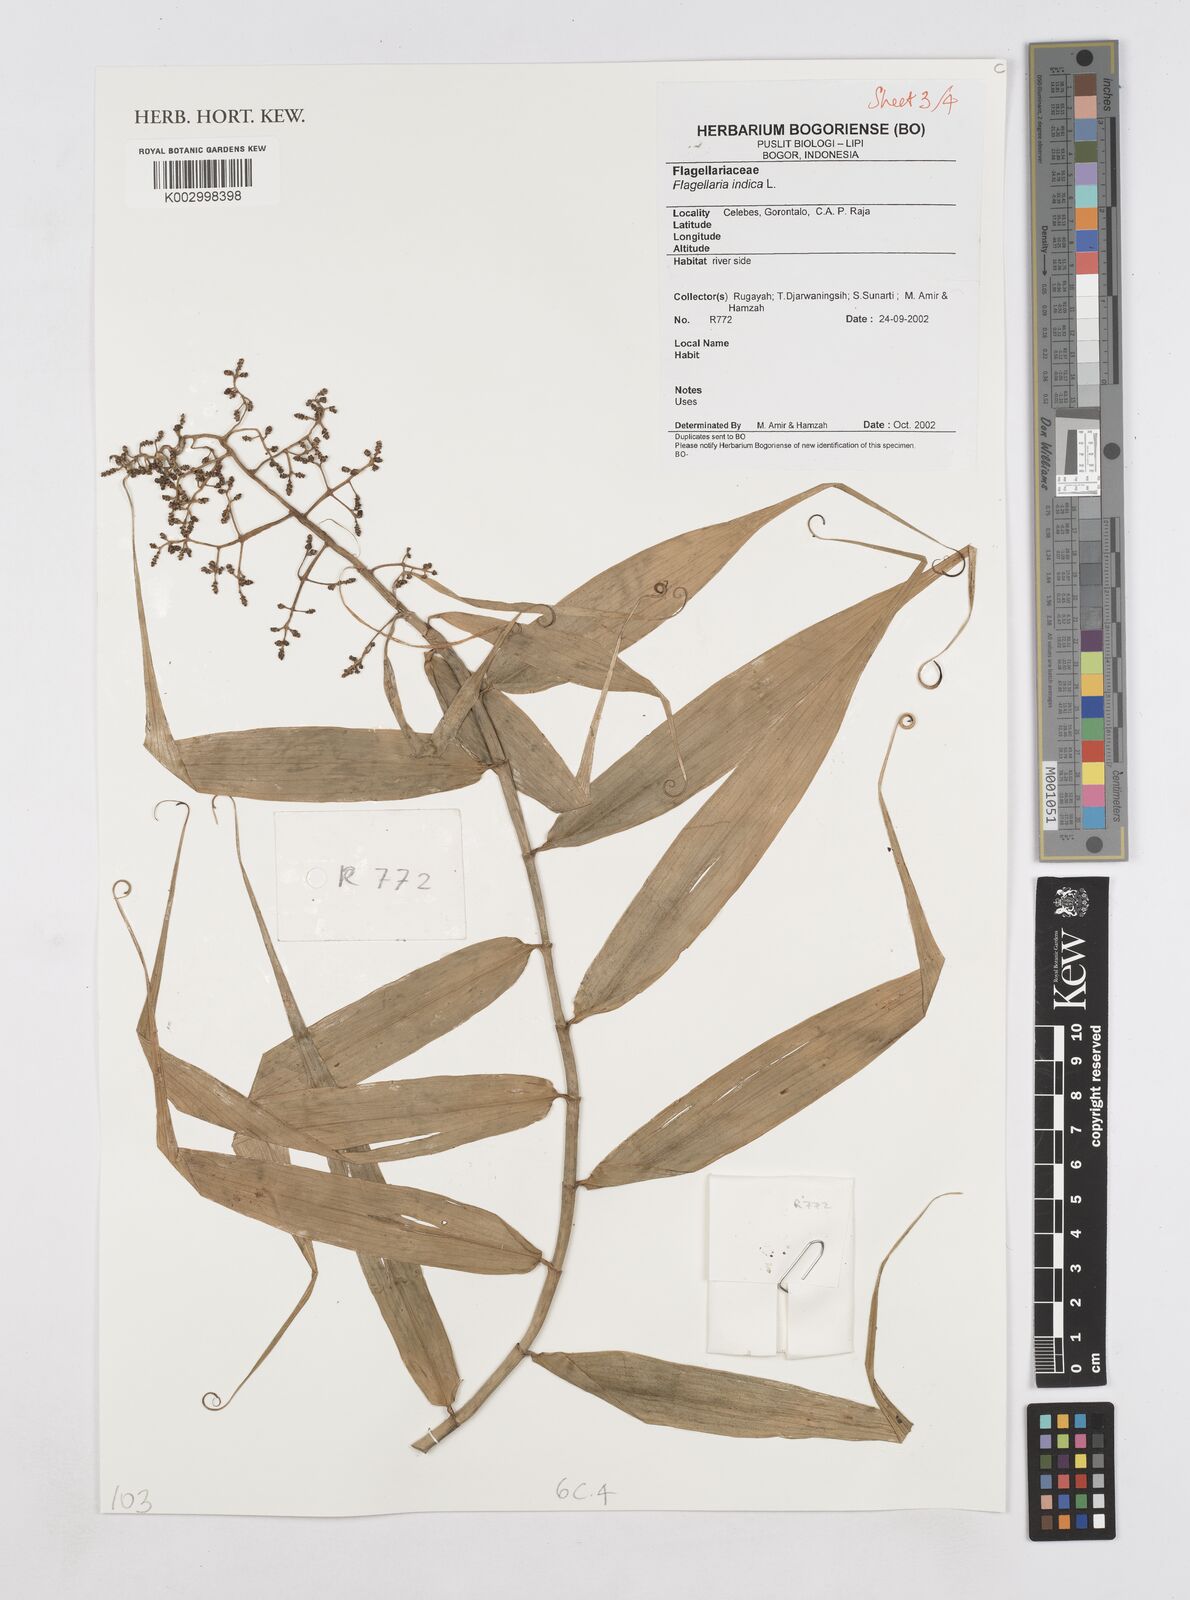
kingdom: Plantae
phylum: Tracheophyta
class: Liliopsida
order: Poales
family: Flagellariaceae
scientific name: Flagellariaceae
